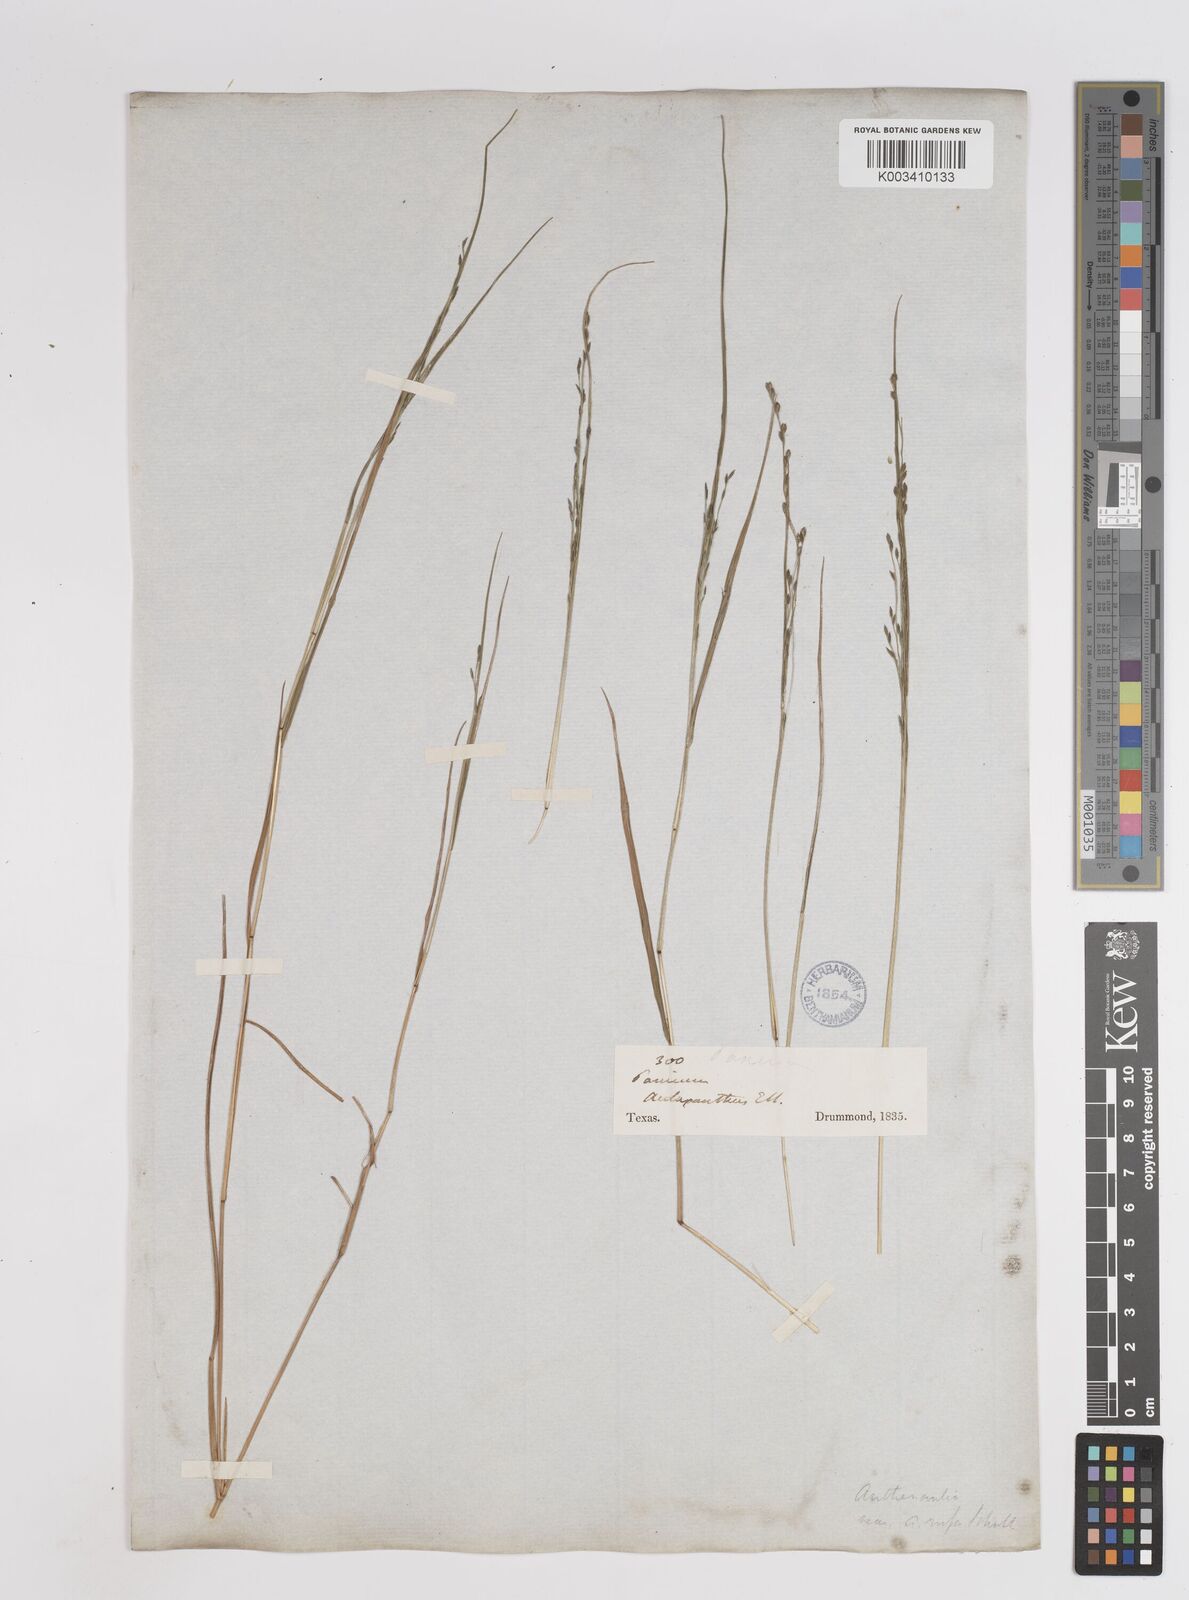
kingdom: Plantae
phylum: Tracheophyta
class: Liliopsida
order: Poales
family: Poaceae
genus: Kellochloa
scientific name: Kellochloa brachyantha
